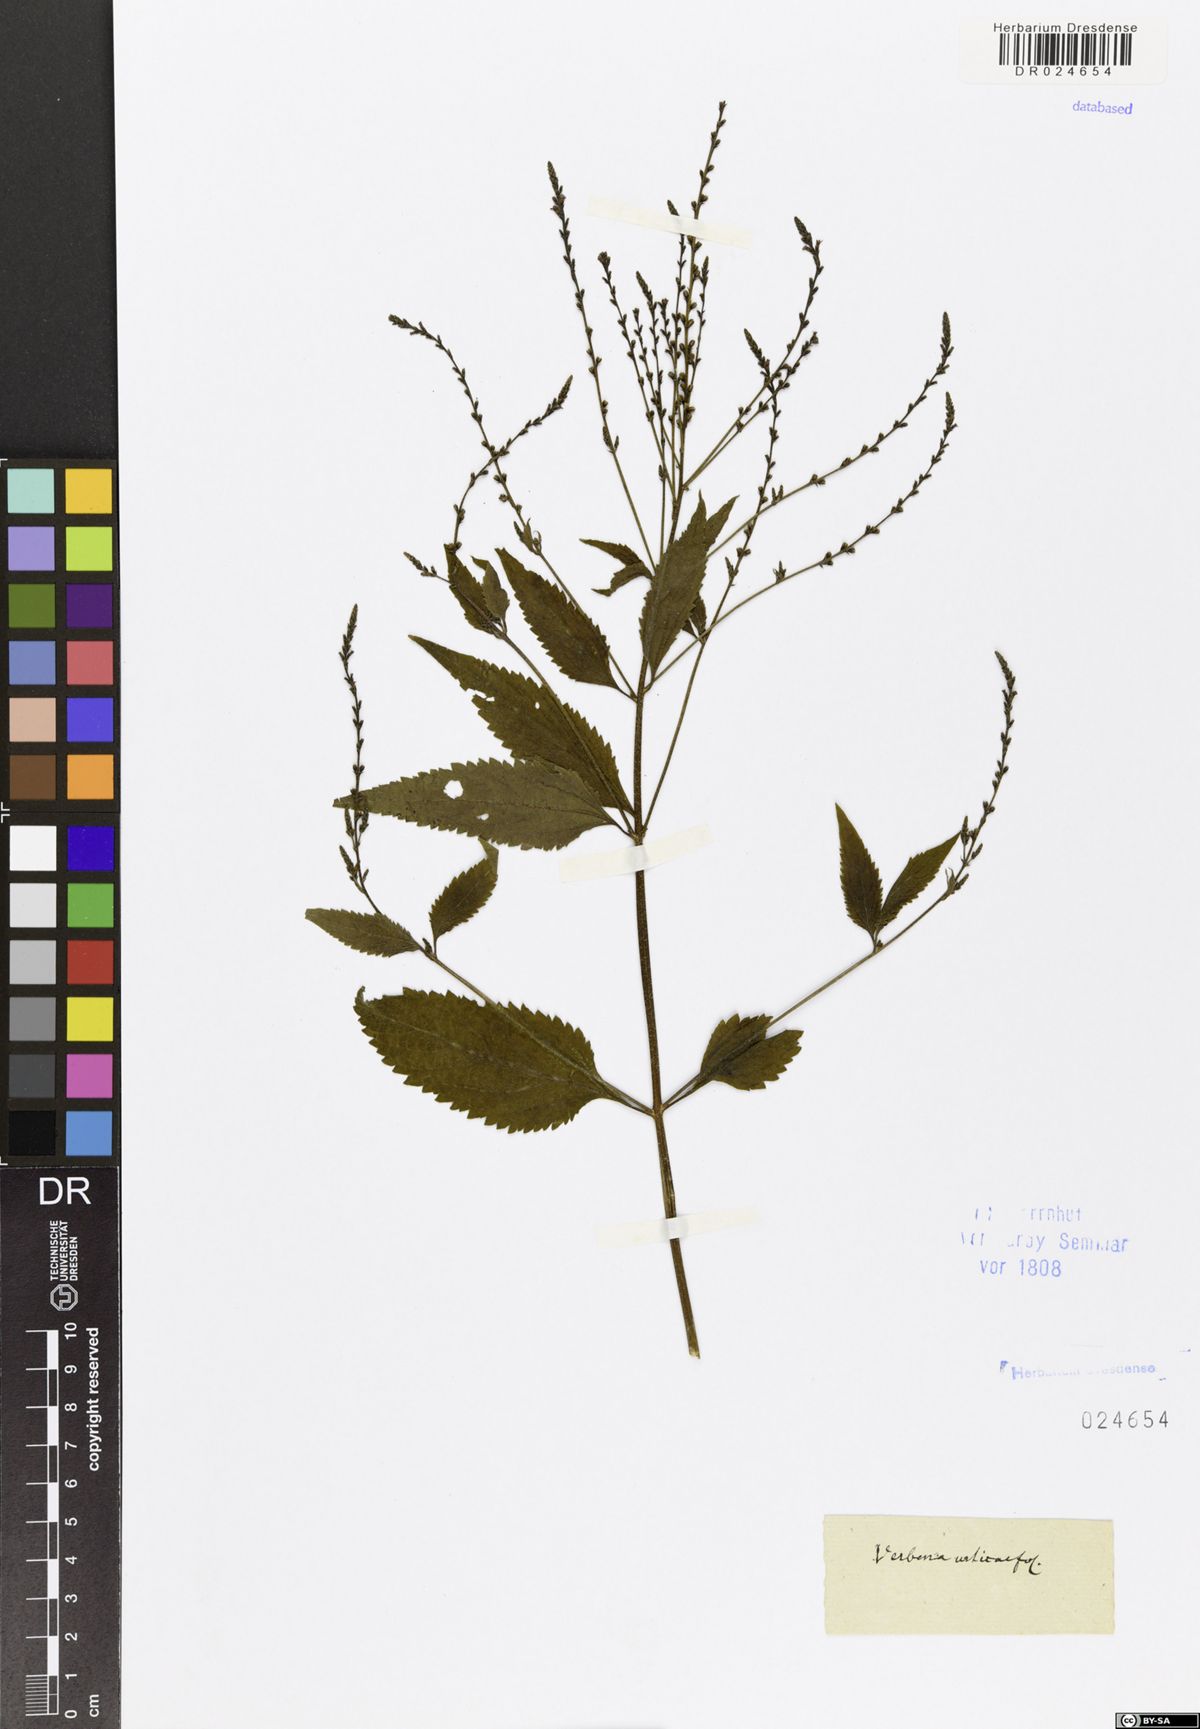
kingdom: Plantae
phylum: Tracheophyta
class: Magnoliopsida
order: Lamiales
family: Verbenaceae
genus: Verbena
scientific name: Verbena urticifolia
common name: Nettle-leaved vervain
